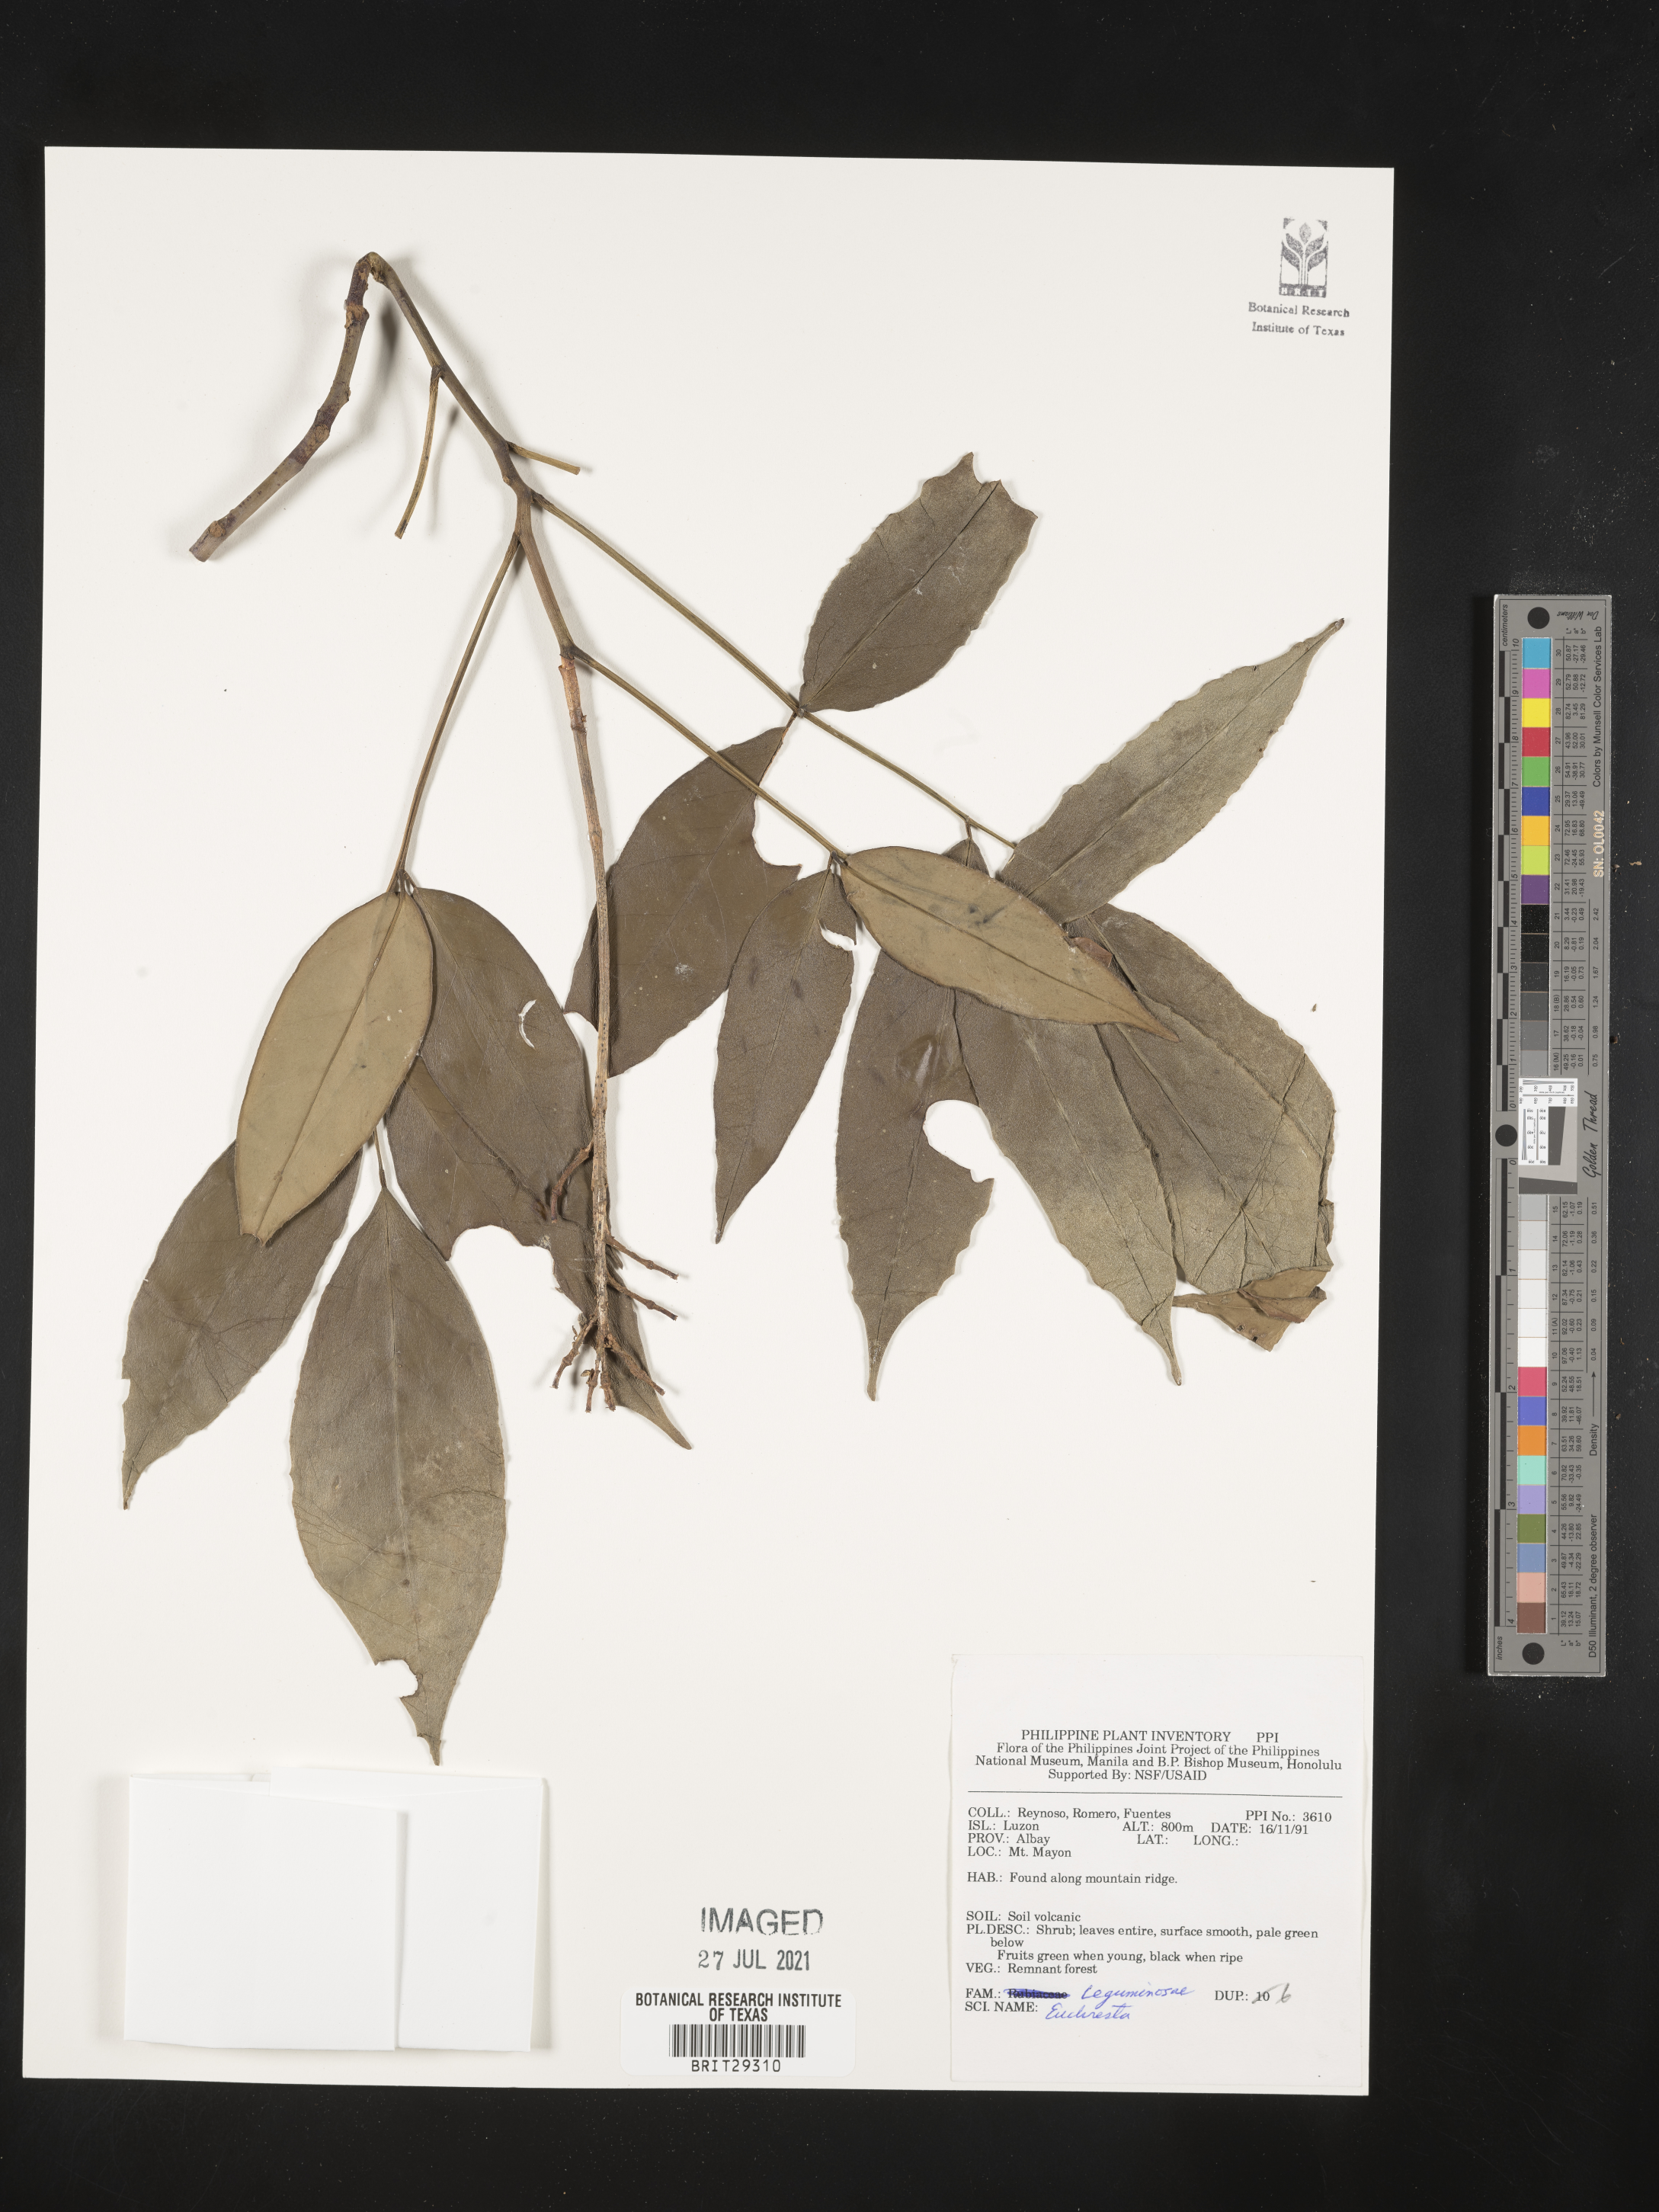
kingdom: Plantae
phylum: Tracheophyta
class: Magnoliopsida
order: Fabales
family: Fabaceae
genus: Euchresta
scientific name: Euchresta
